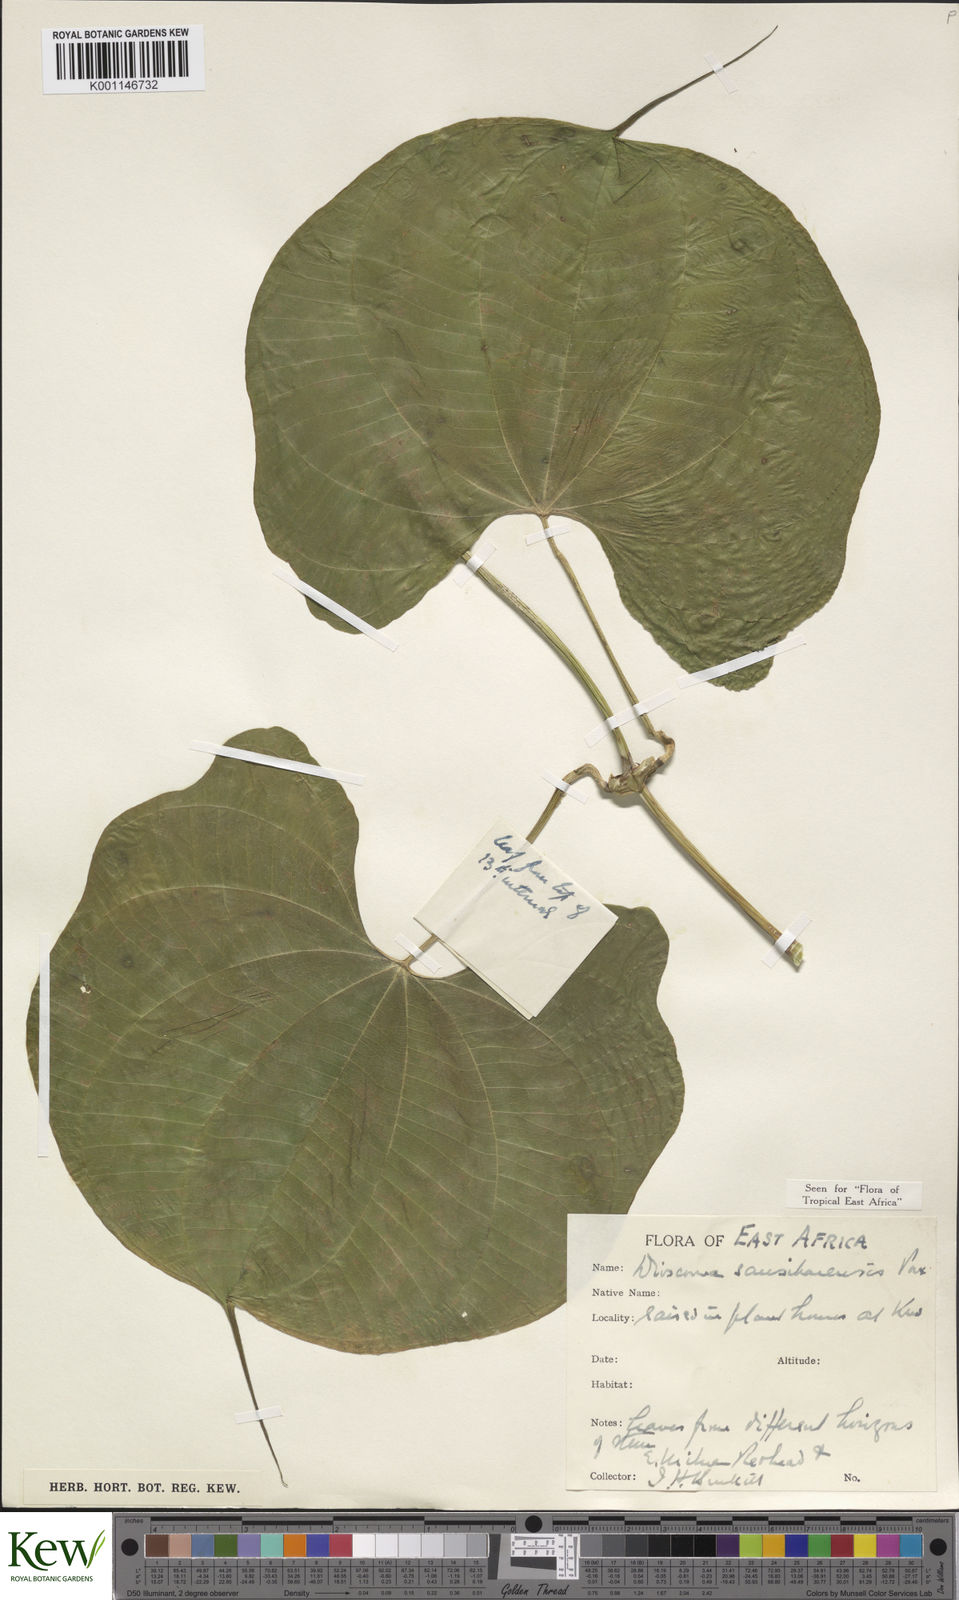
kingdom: Plantae
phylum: Tracheophyta
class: Liliopsida
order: Dioscoreales
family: Dioscoreaceae
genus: Dioscorea
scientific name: Dioscorea sansibarensis
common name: Zanzibar yam
